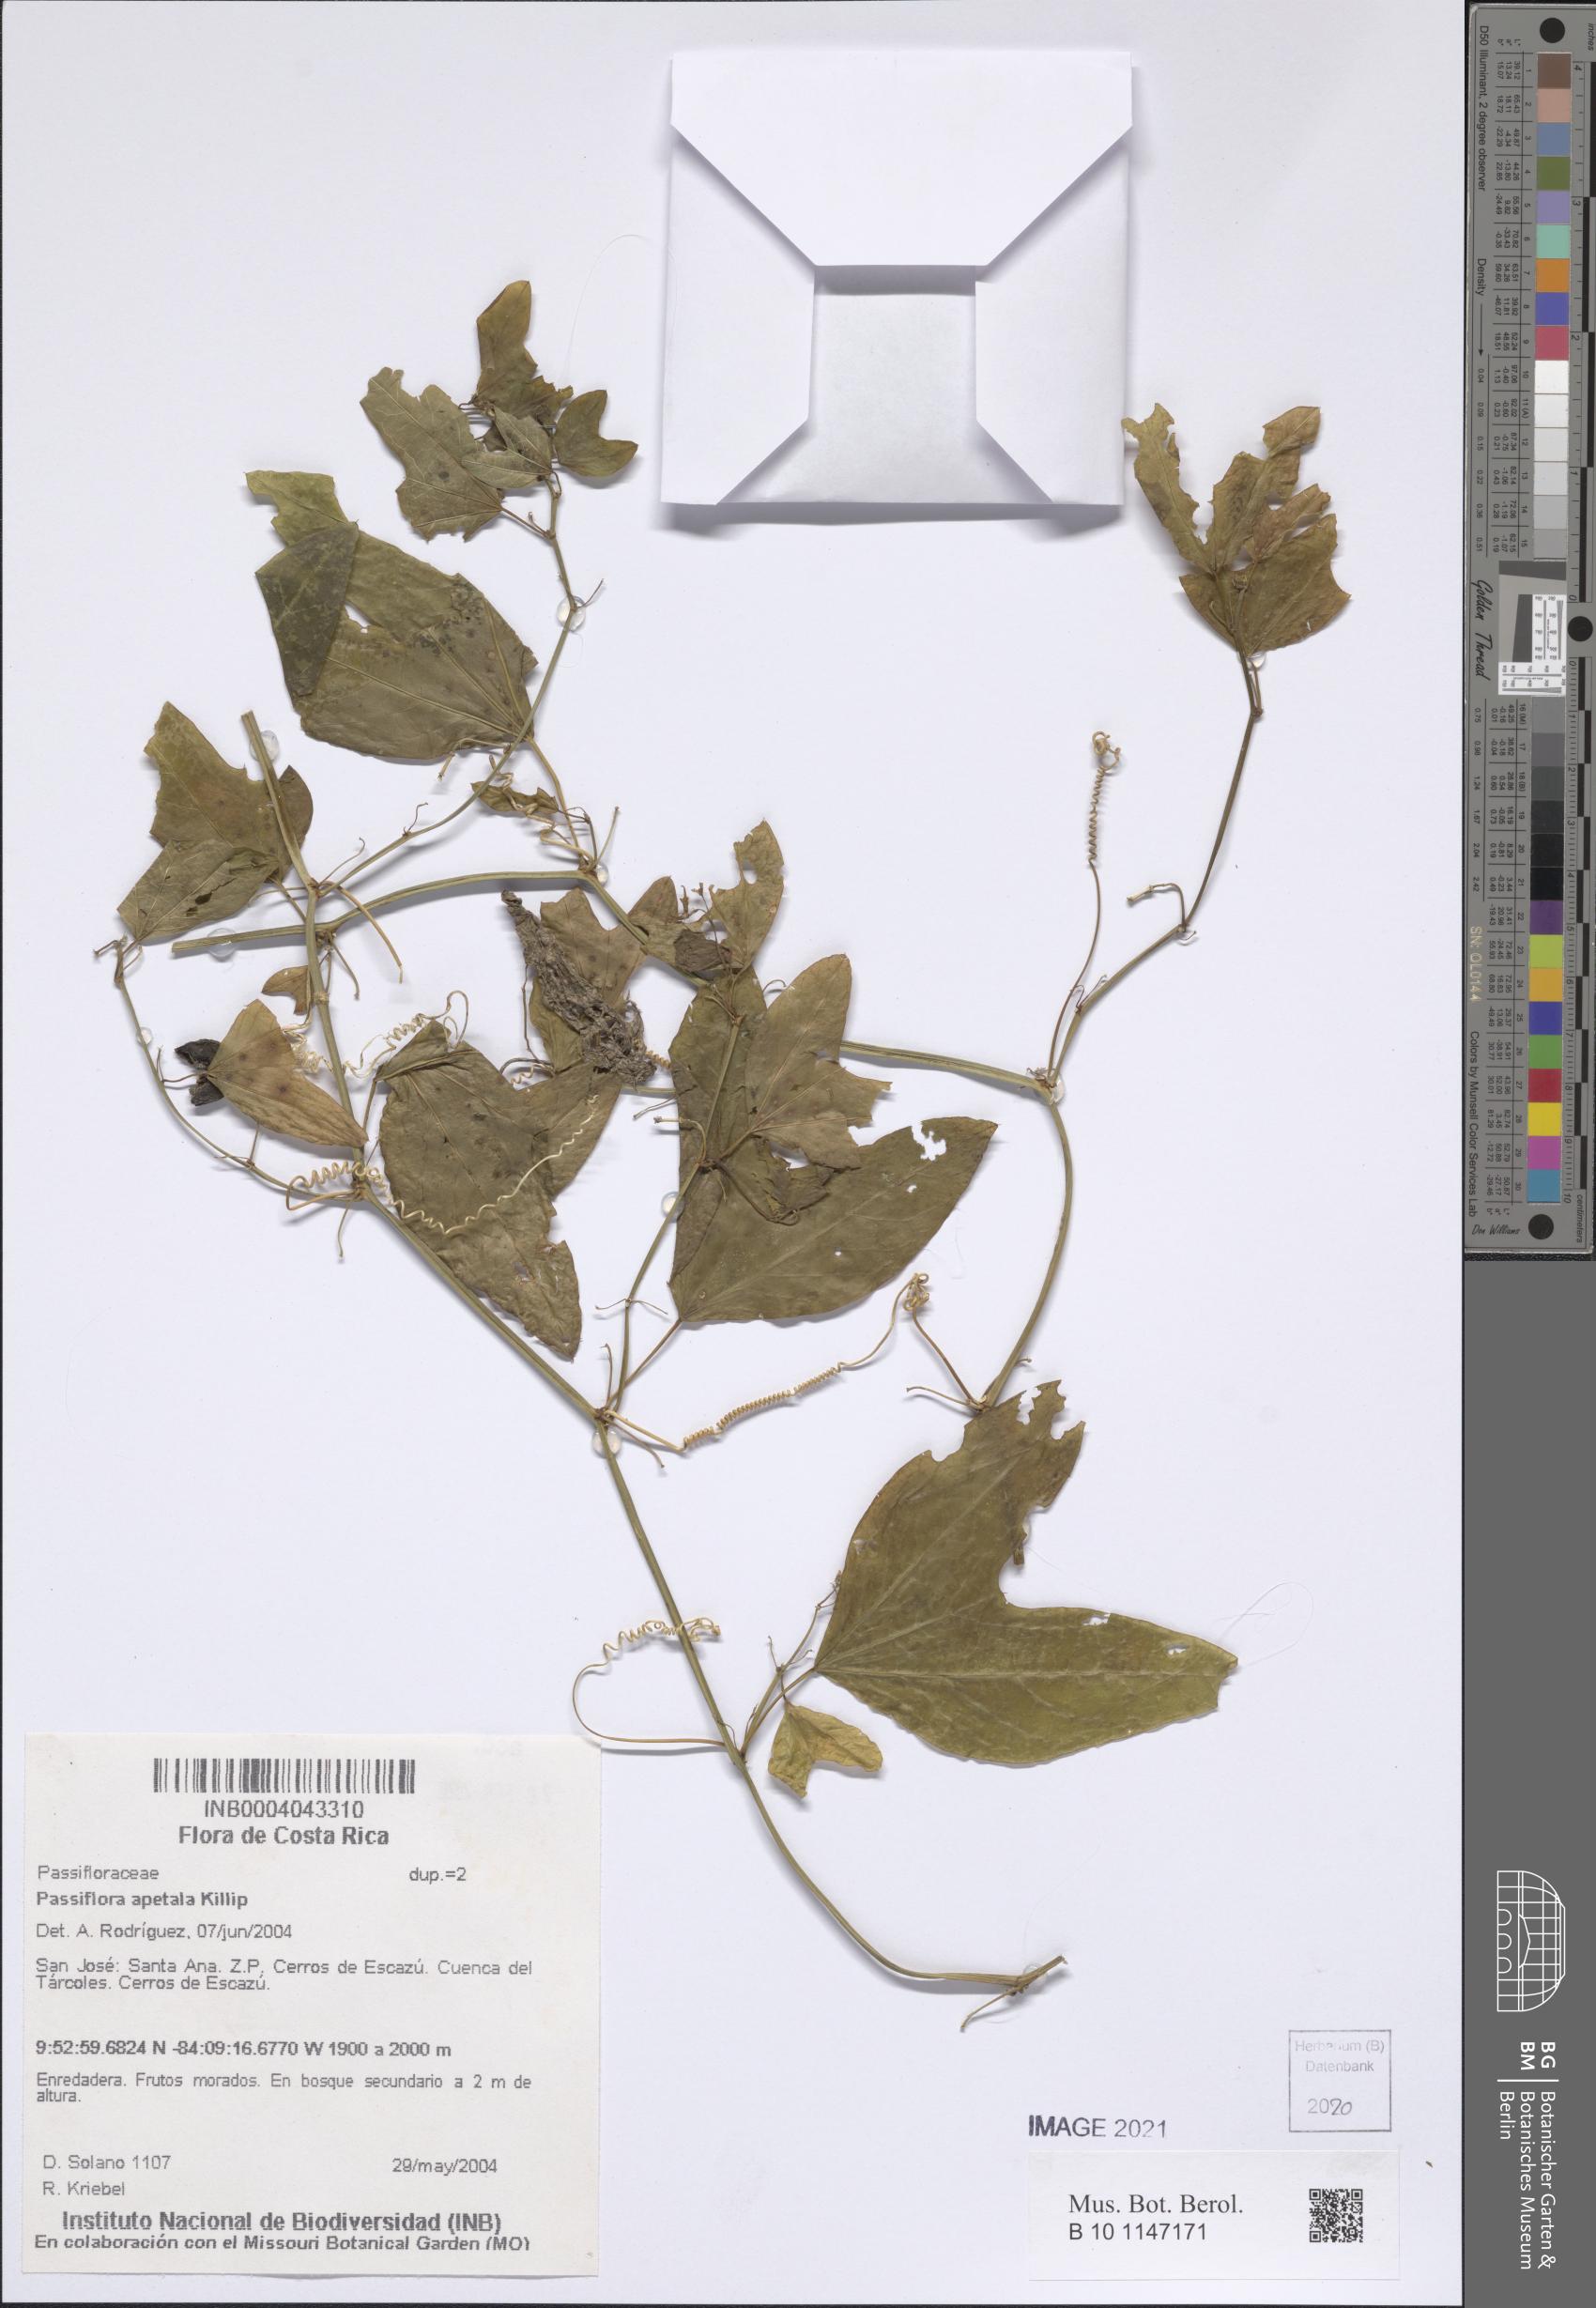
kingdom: Plantae
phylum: Tracheophyta
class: Magnoliopsida
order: Malpighiales
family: Passifloraceae
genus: Passiflora
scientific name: Passiflora apetala
